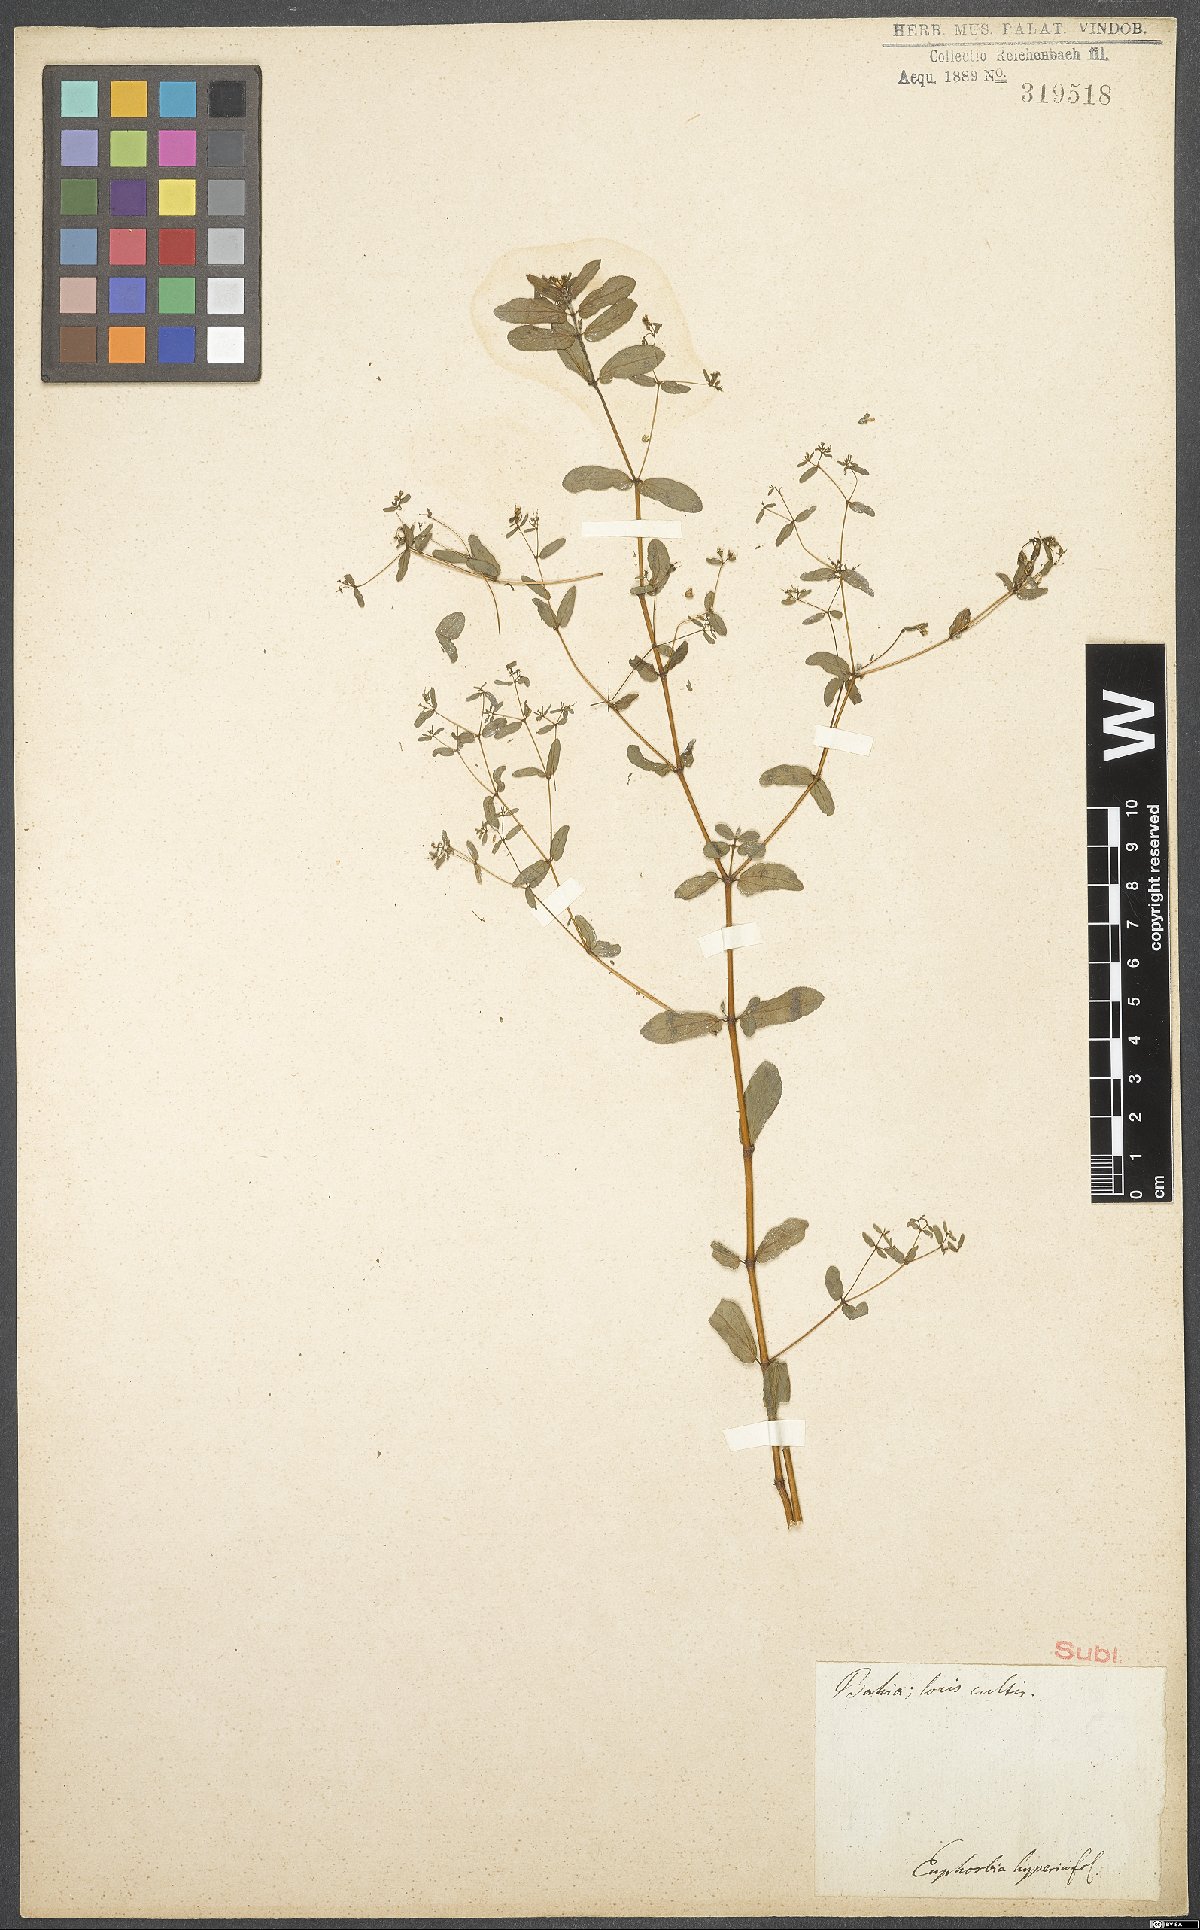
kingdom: Plantae
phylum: Tracheophyta
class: Magnoliopsida
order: Malpighiales
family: Euphorbiaceae
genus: Euphorbia
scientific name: Euphorbia hypericifolia
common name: Graceful sandmat
